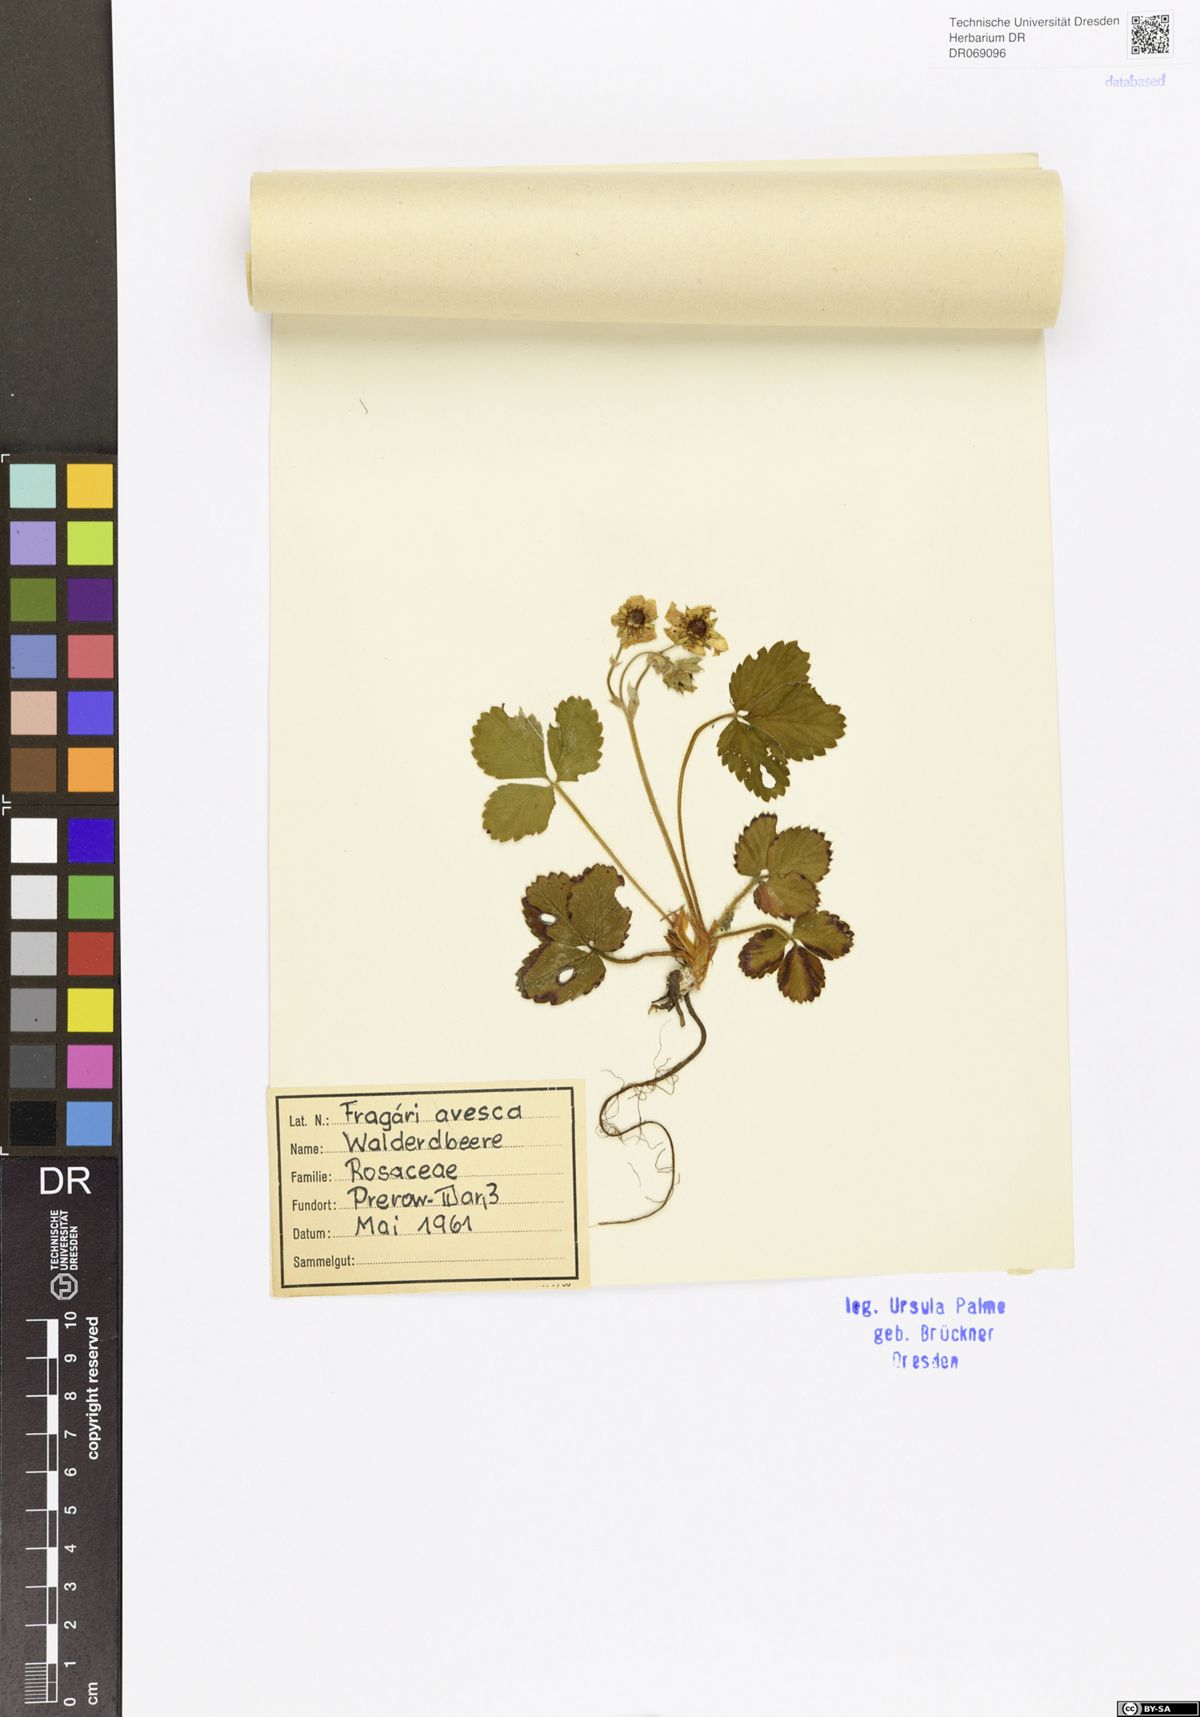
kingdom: Plantae
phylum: Tracheophyta
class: Magnoliopsida
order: Rosales
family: Rosaceae
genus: Fragaria
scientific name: Fragaria vesca
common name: Wild strawberry
